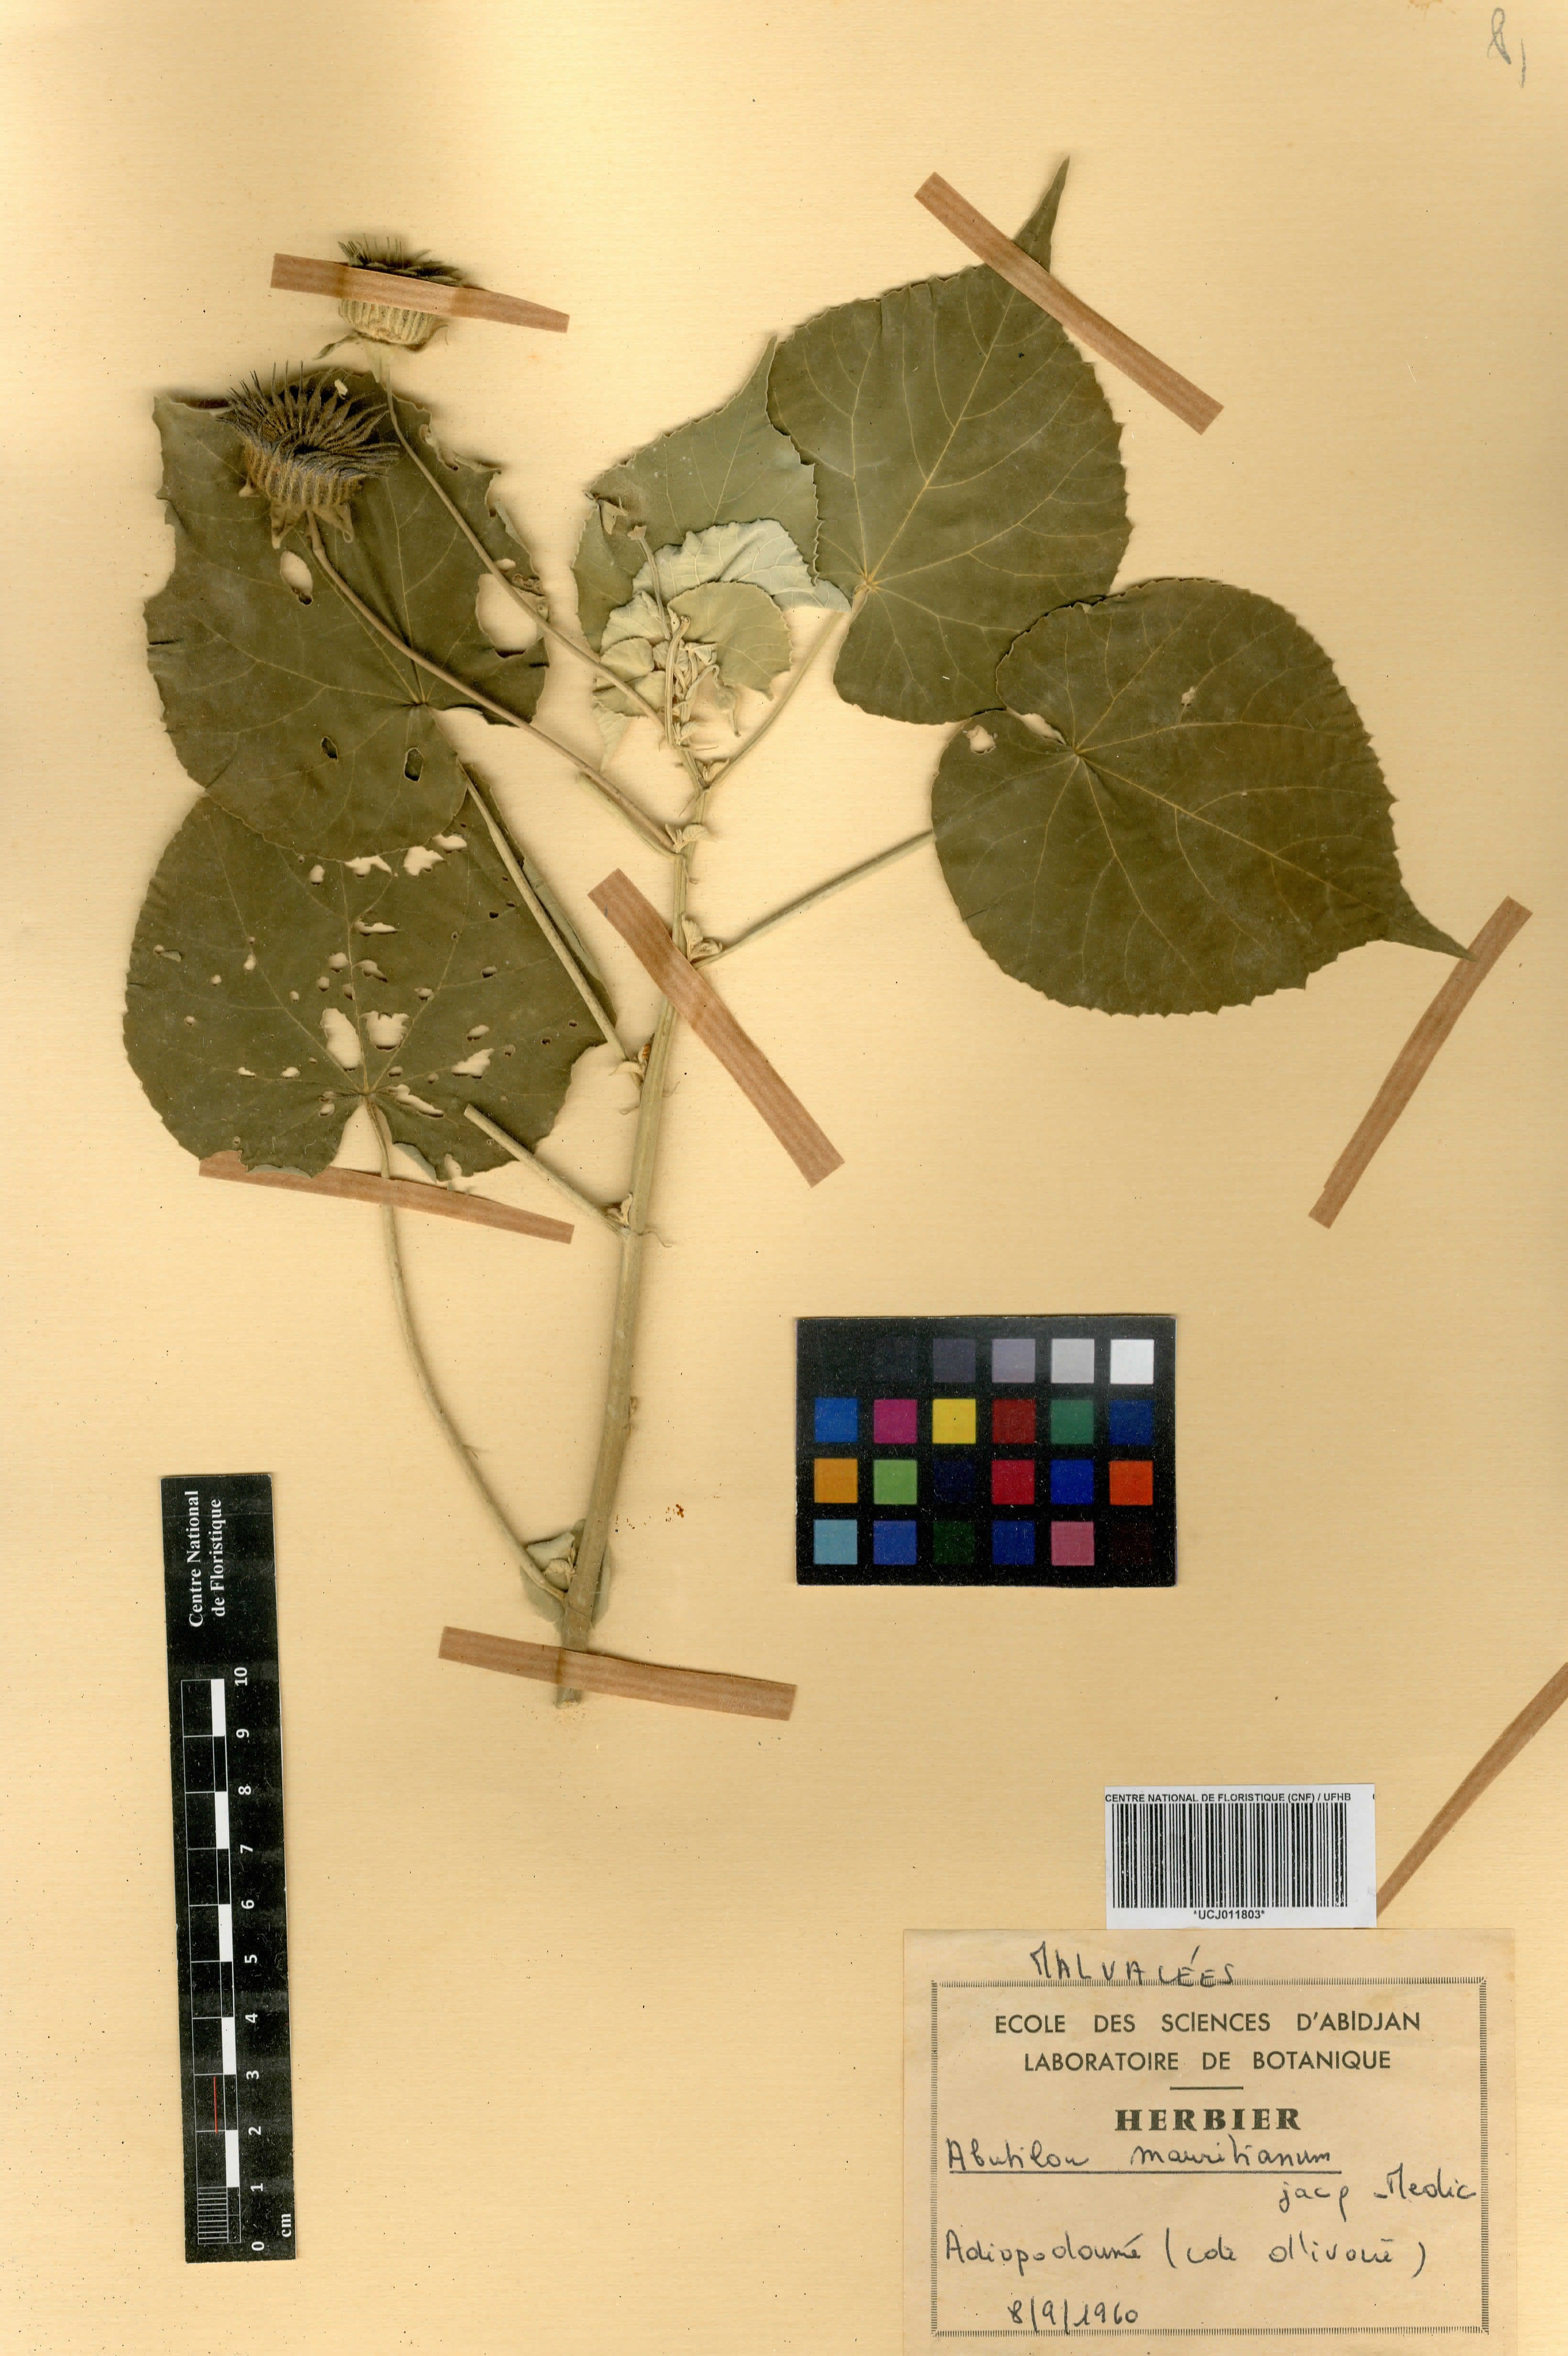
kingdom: Plantae
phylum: Tracheophyta
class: Magnoliopsida
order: Malvales
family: Malvaceae
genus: Abutilon
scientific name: Abutilon mauritianum
